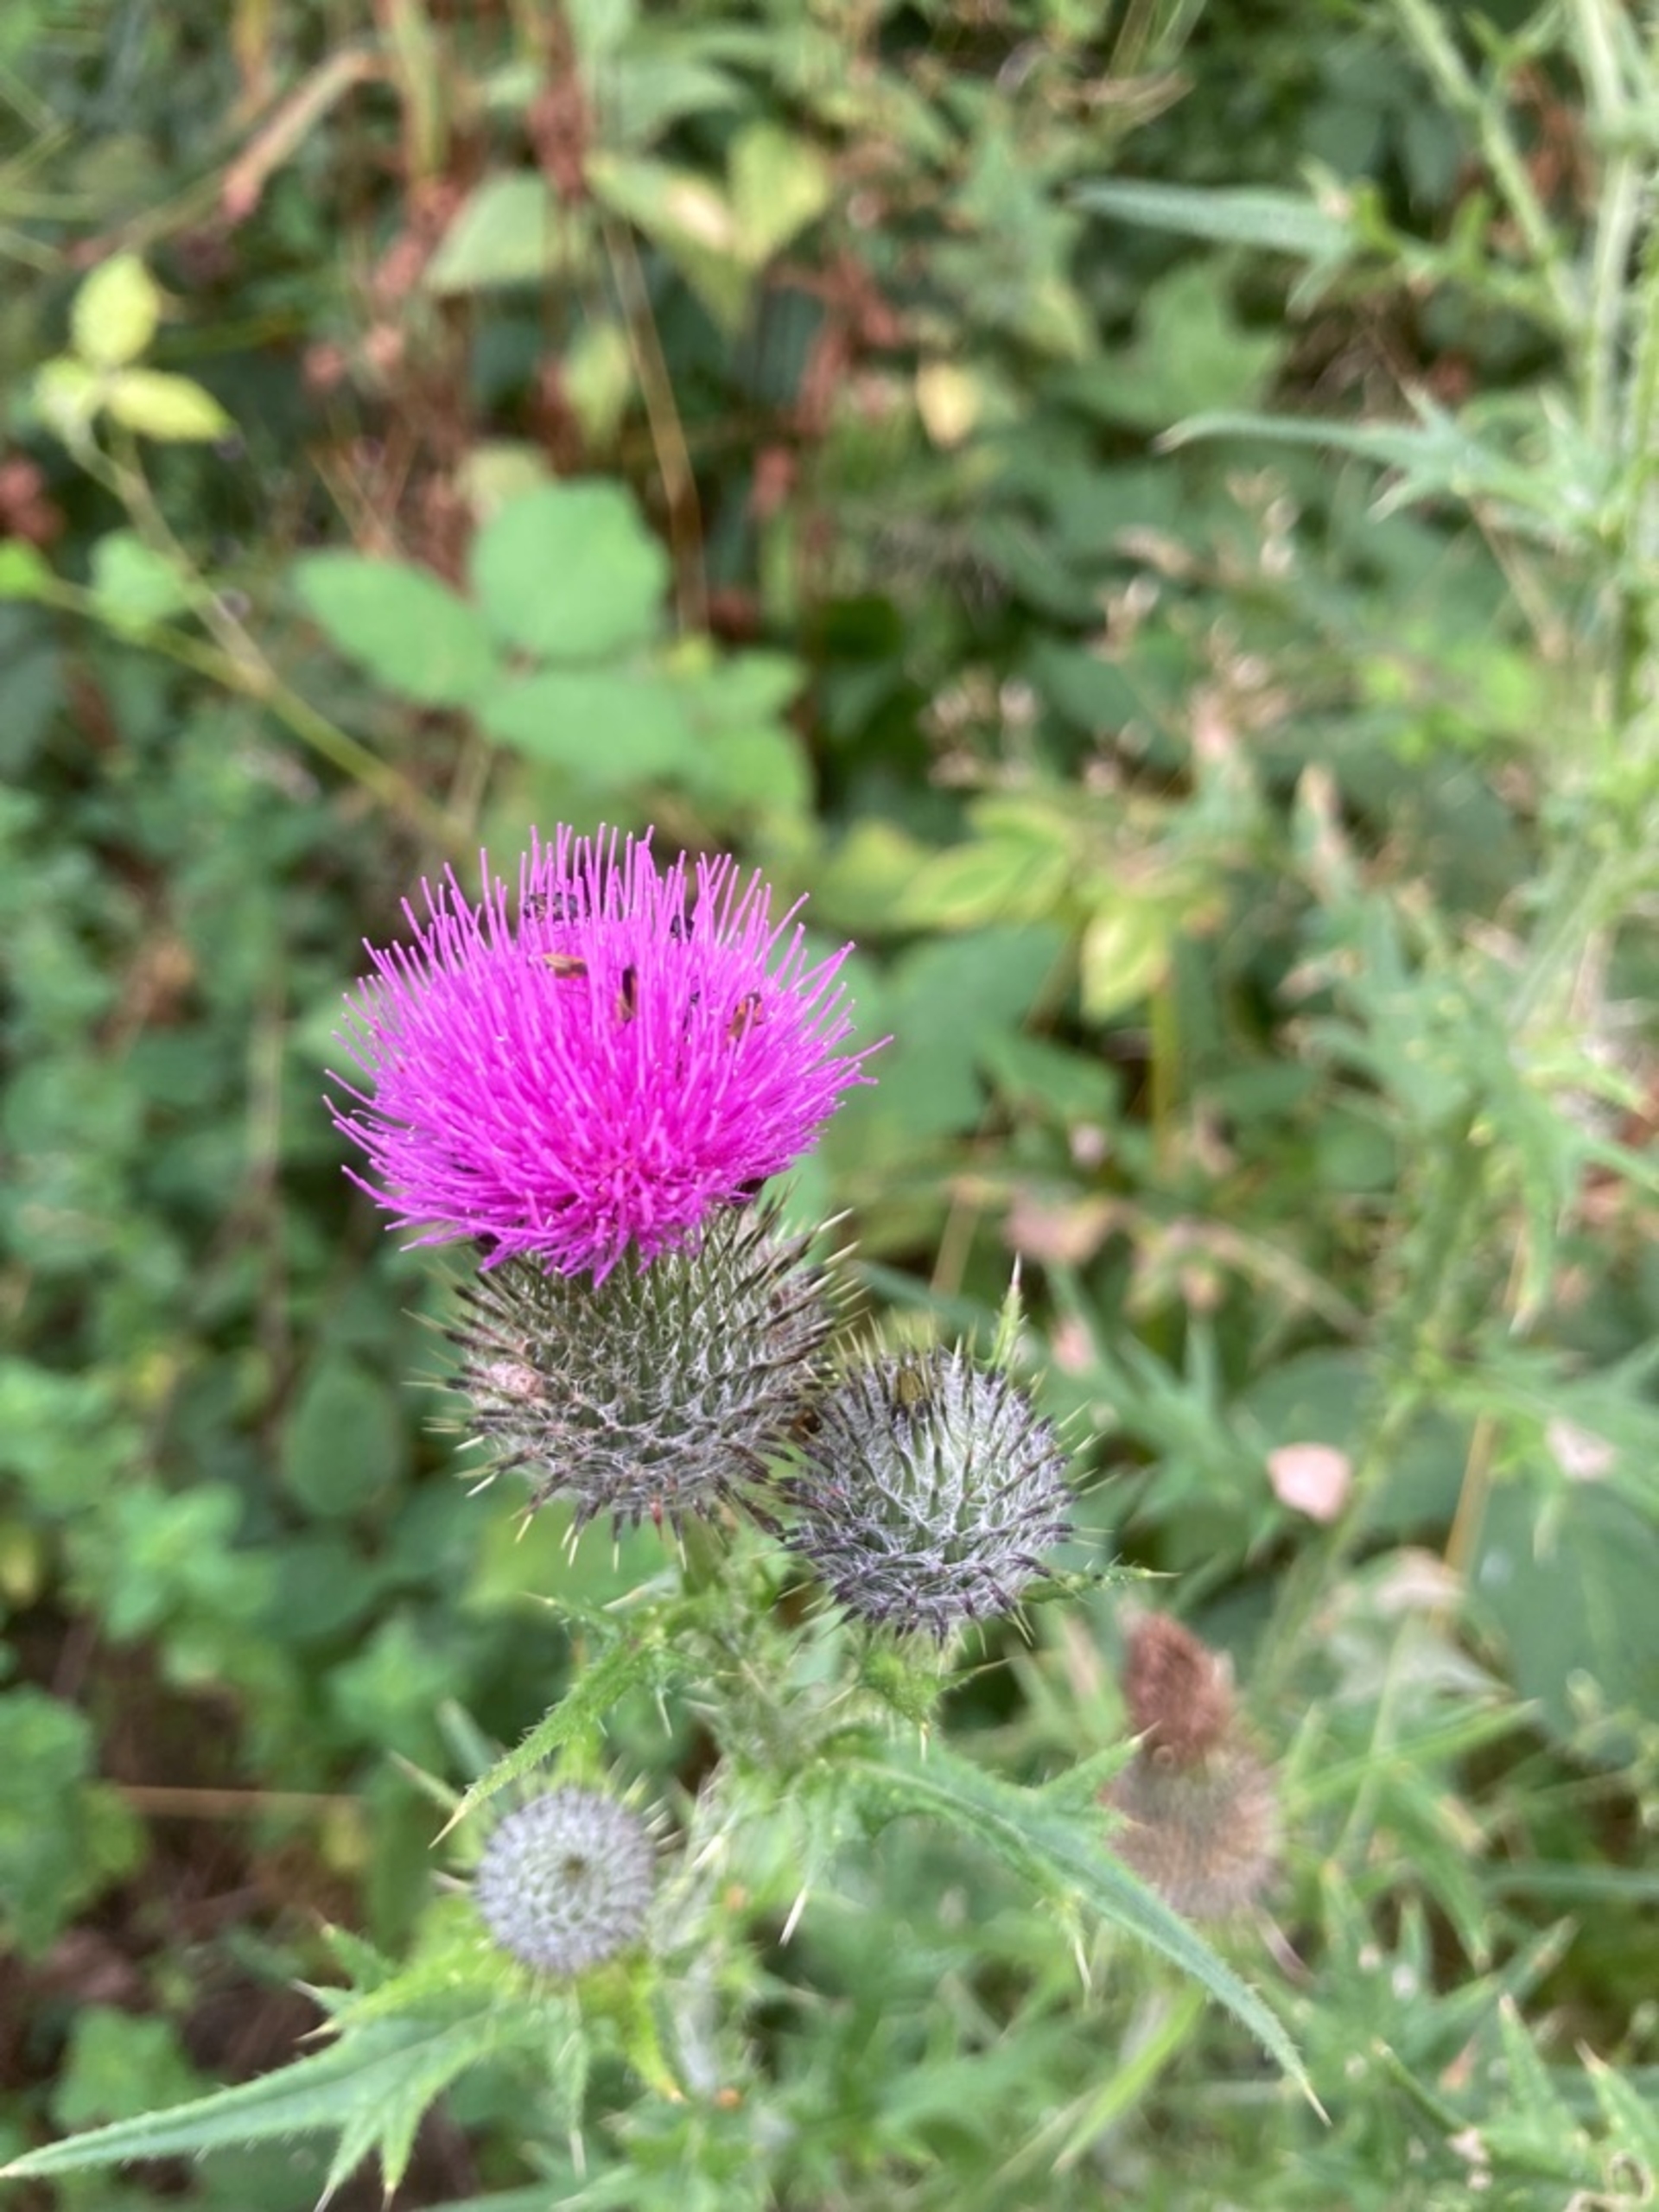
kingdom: Plantae
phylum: Tracheophyta
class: Magnoliopsida
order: Asterales
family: Asteraceae
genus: Cirsium
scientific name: Cirsium vulgare
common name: Horse-tidsel
